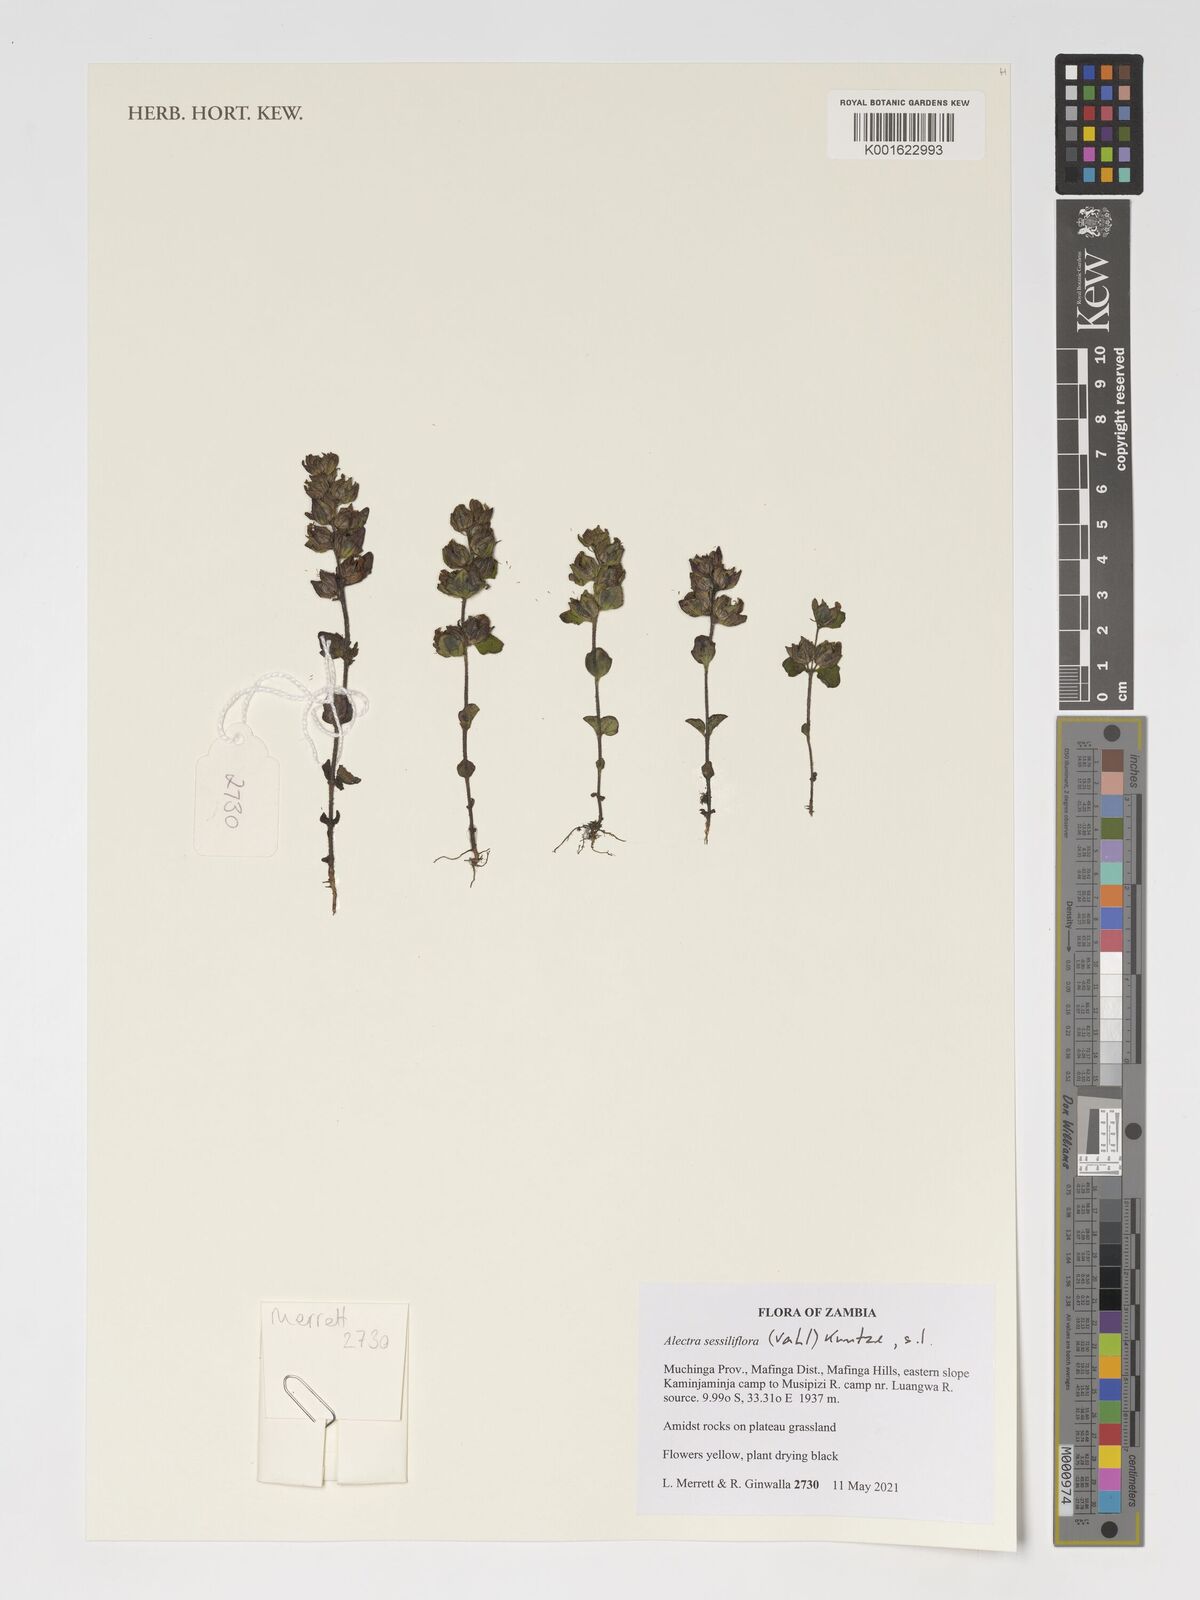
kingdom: Plantae
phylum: Tracheophyta
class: Magnoliopsida
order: Lamiales
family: Orobanchaceae
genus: Alectra
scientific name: Alectra sessiliflora
